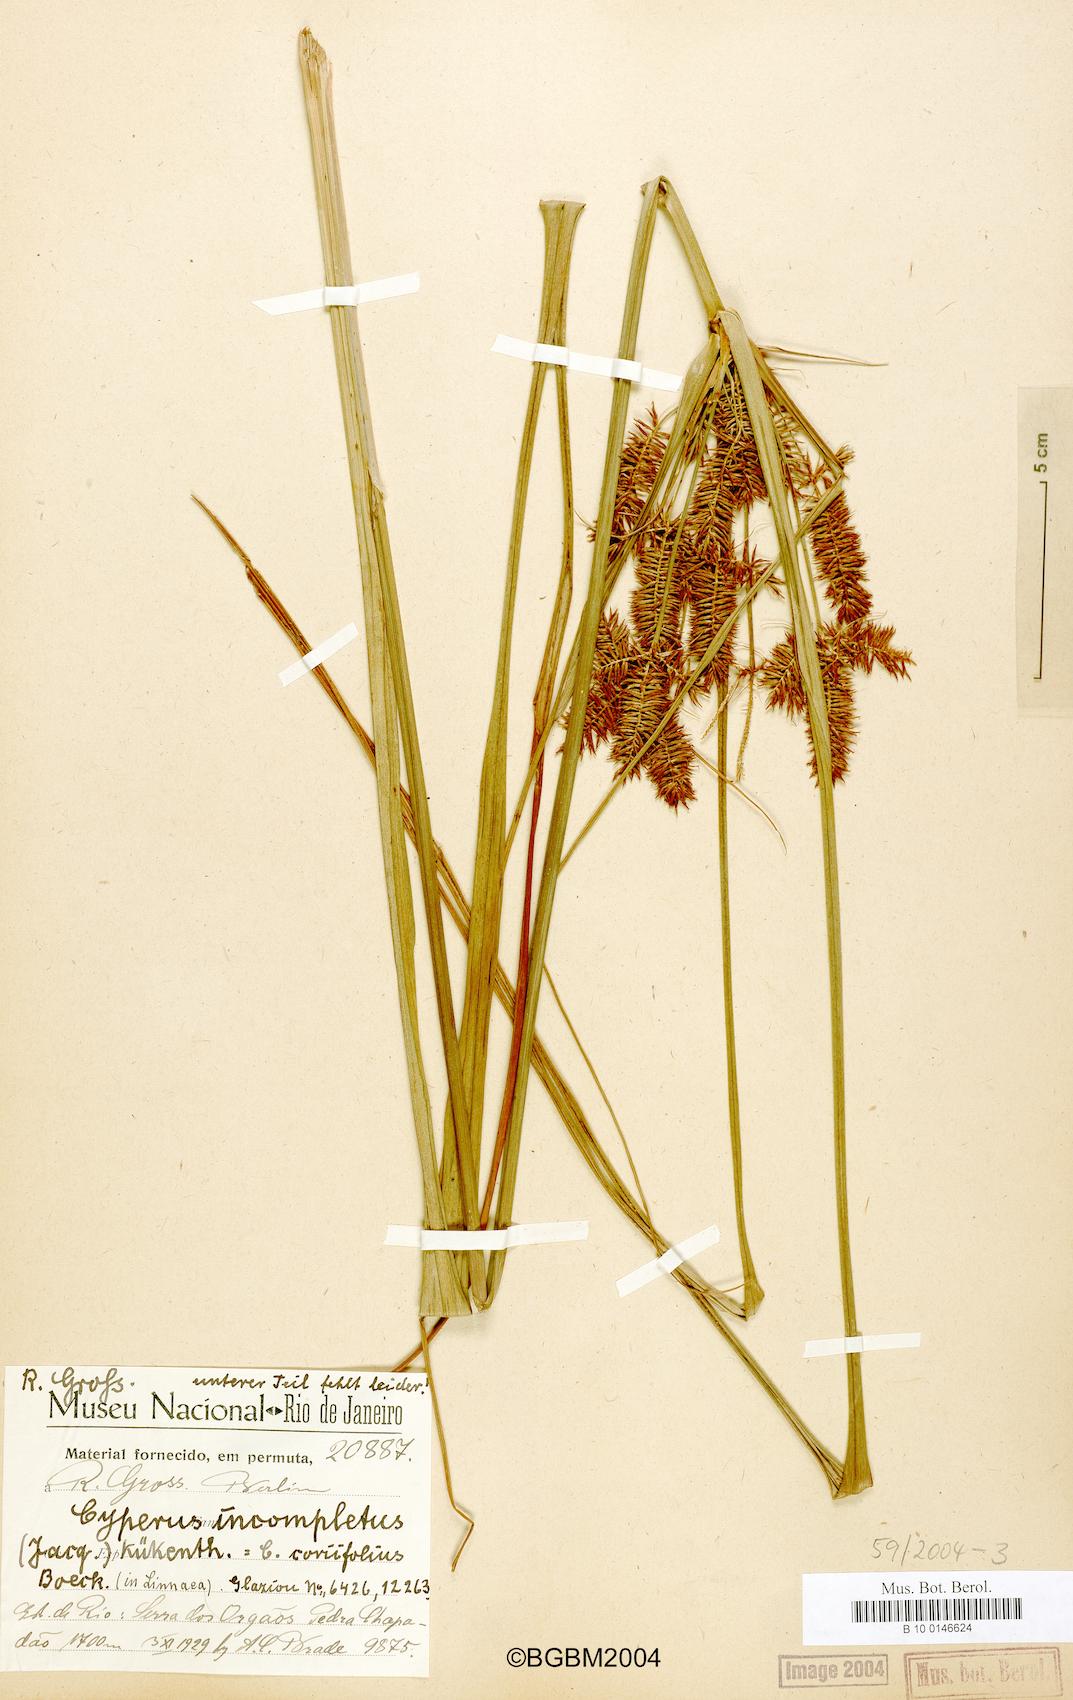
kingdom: Plantae
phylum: Tracheophyta
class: Liliopsida
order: Poales
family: Cyperaceae
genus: Cyperus
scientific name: Cyperus hermaphroditus
